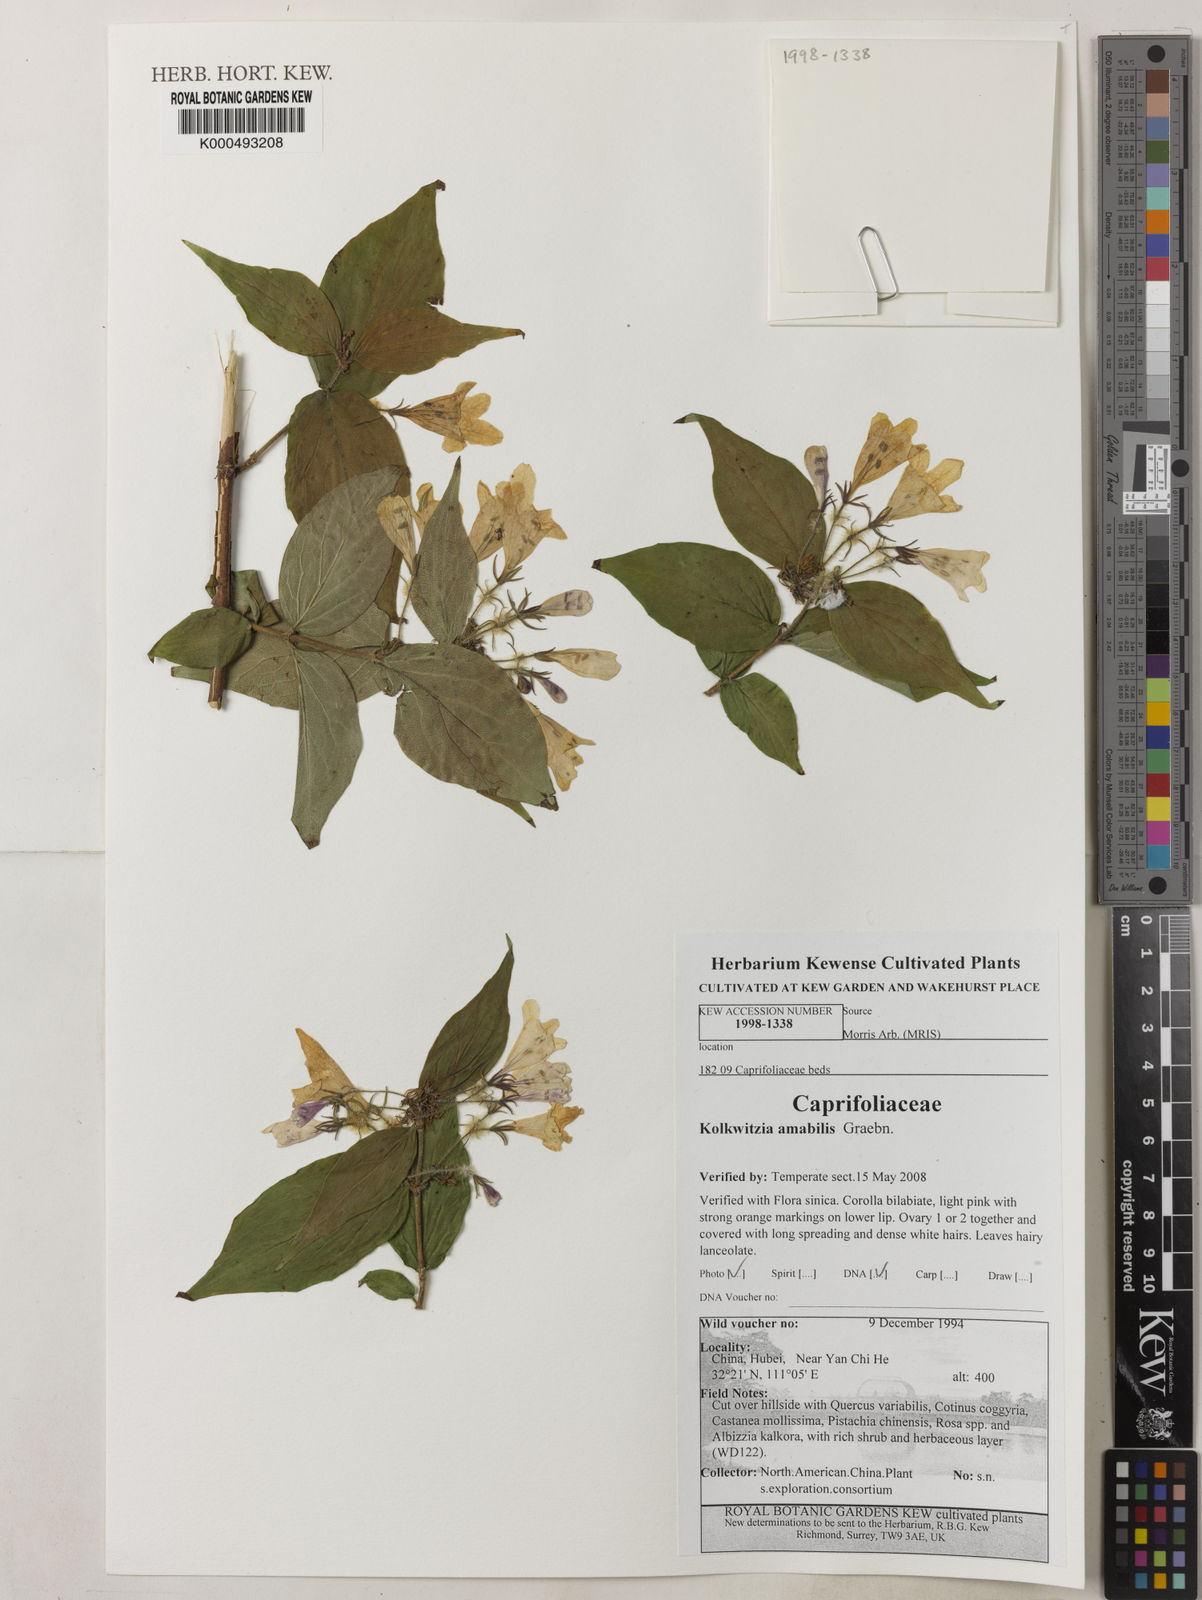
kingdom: Plantae
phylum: Tracheophyta
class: Magnoliopsida
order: Dipsacales
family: Caprifoliaceae
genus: Kolkwitzia
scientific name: Kolkwitzia amabilis
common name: Beautybush
